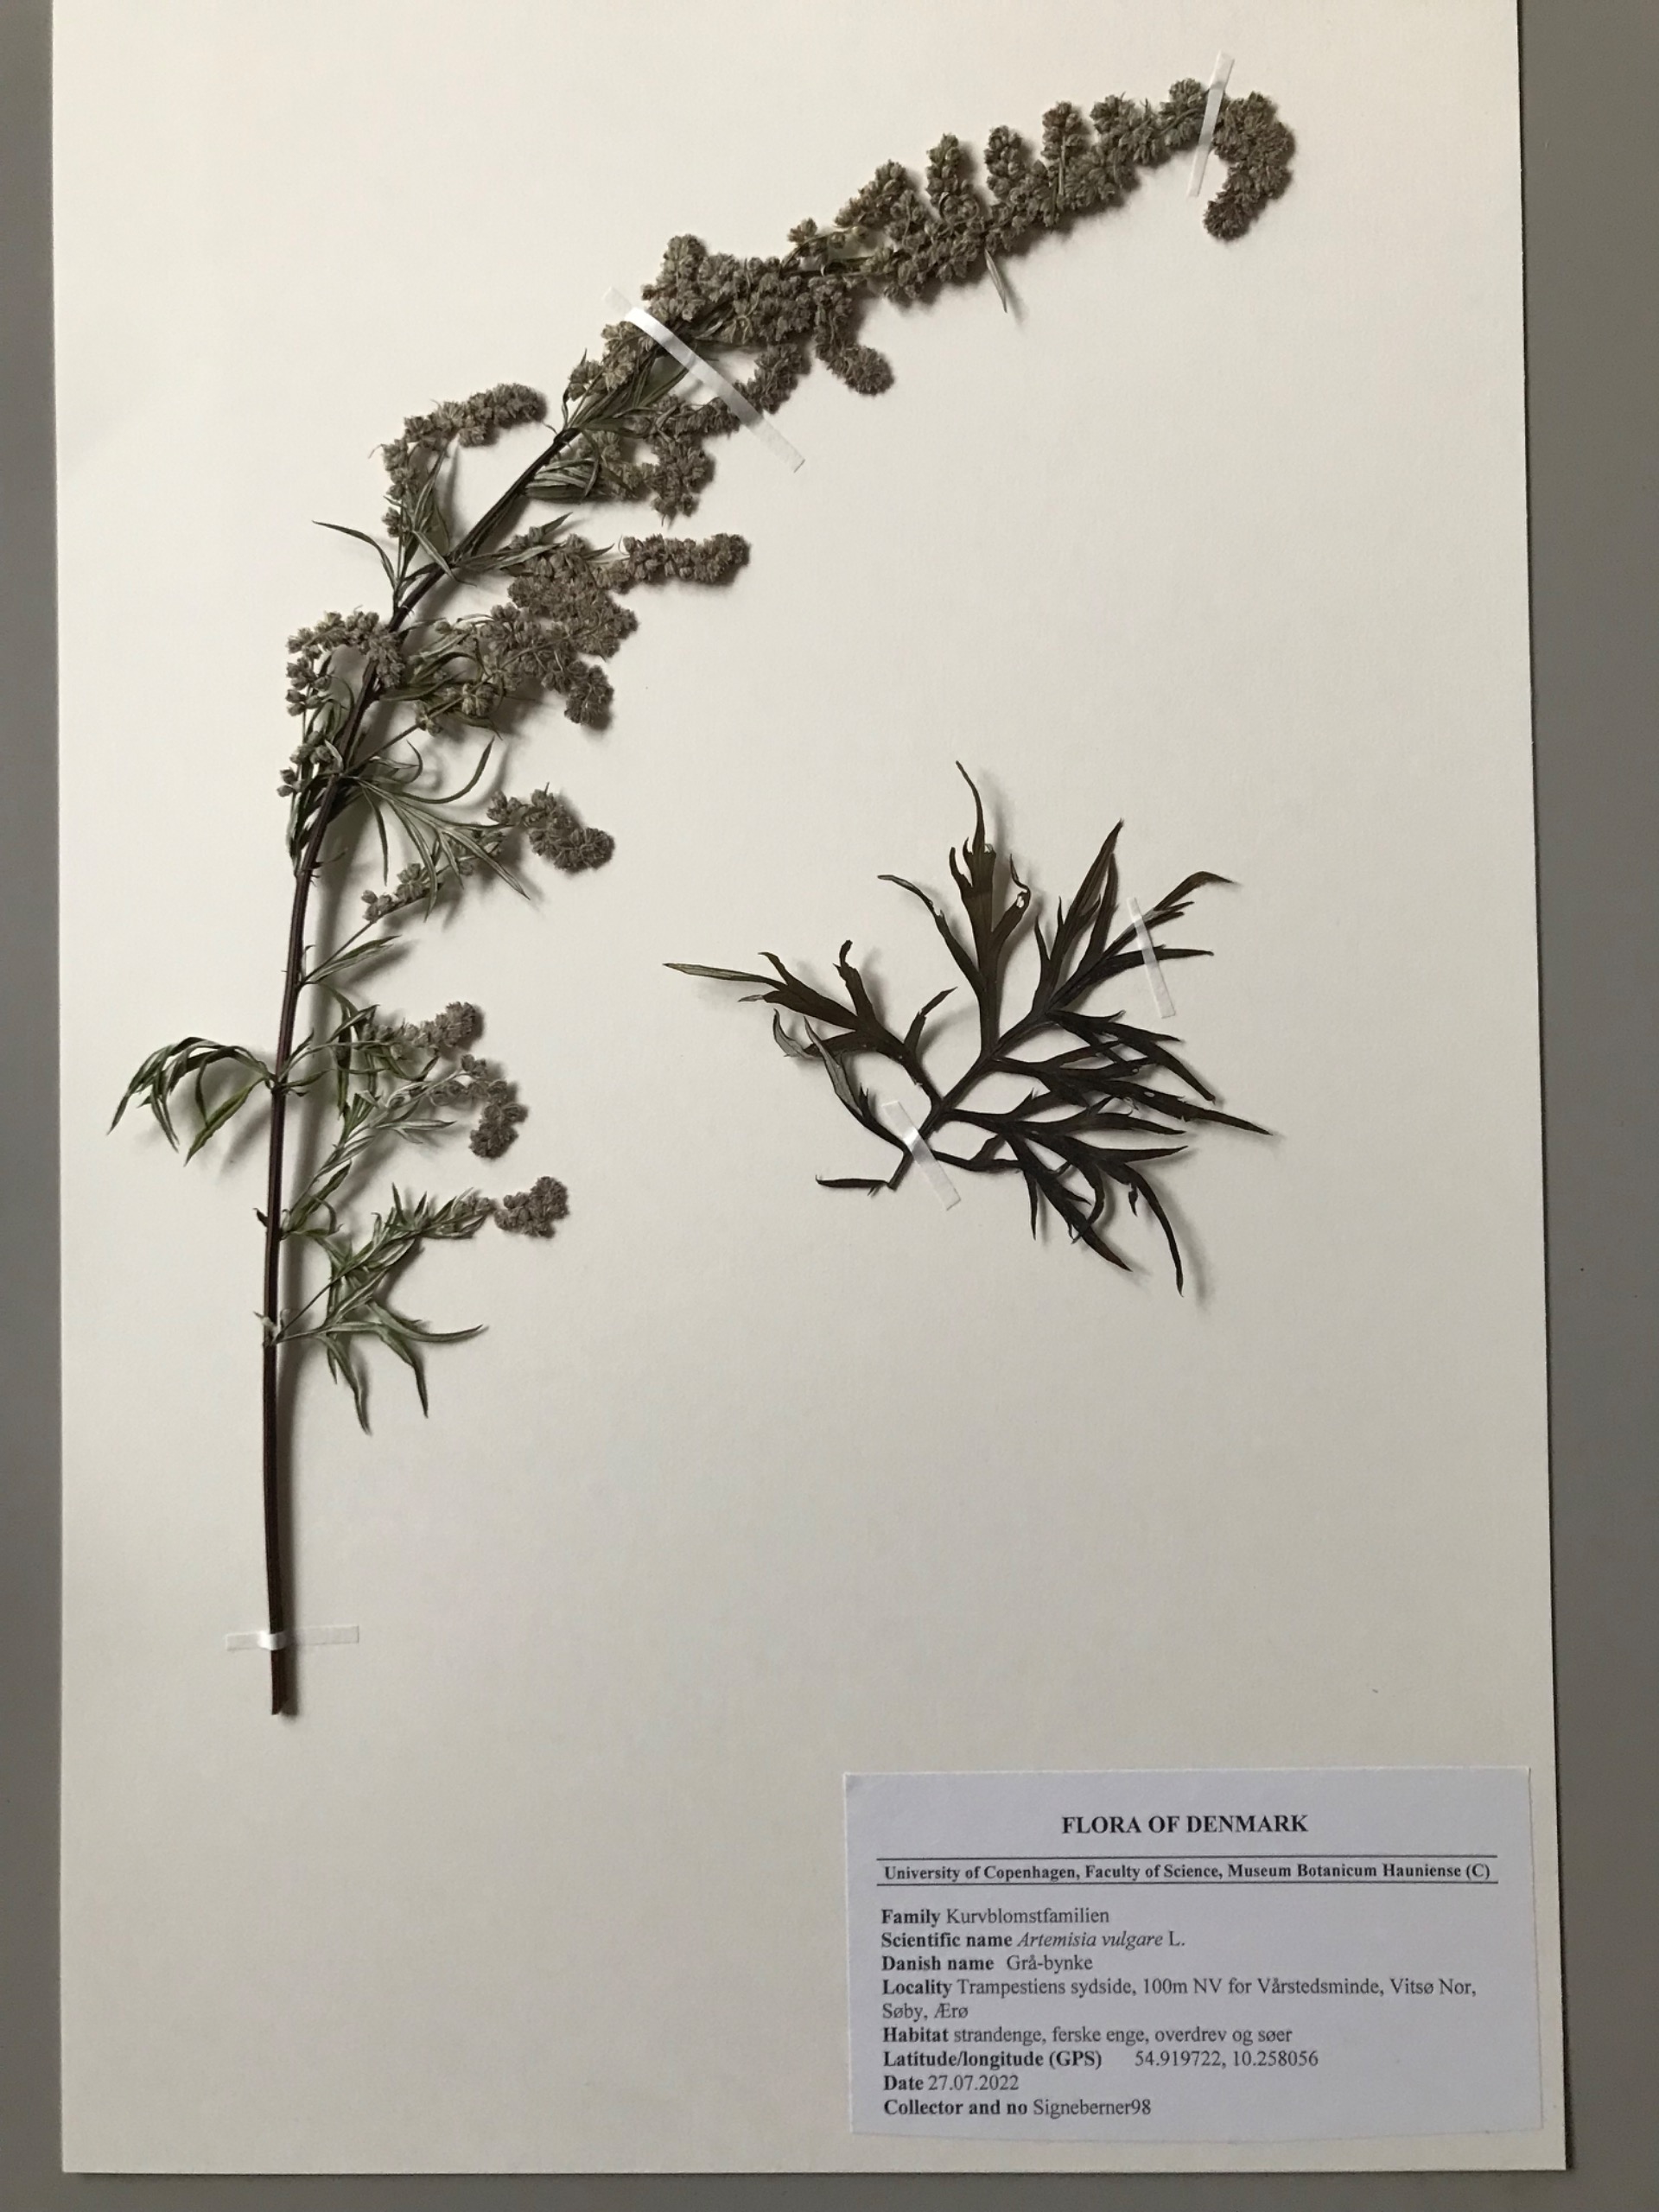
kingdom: Plantae
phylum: Tracheophyta
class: Magnoliopsida
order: Asterales
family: Asteraceae
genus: Artemisia
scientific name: Artemisia vulgaris
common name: Grå-bynke
